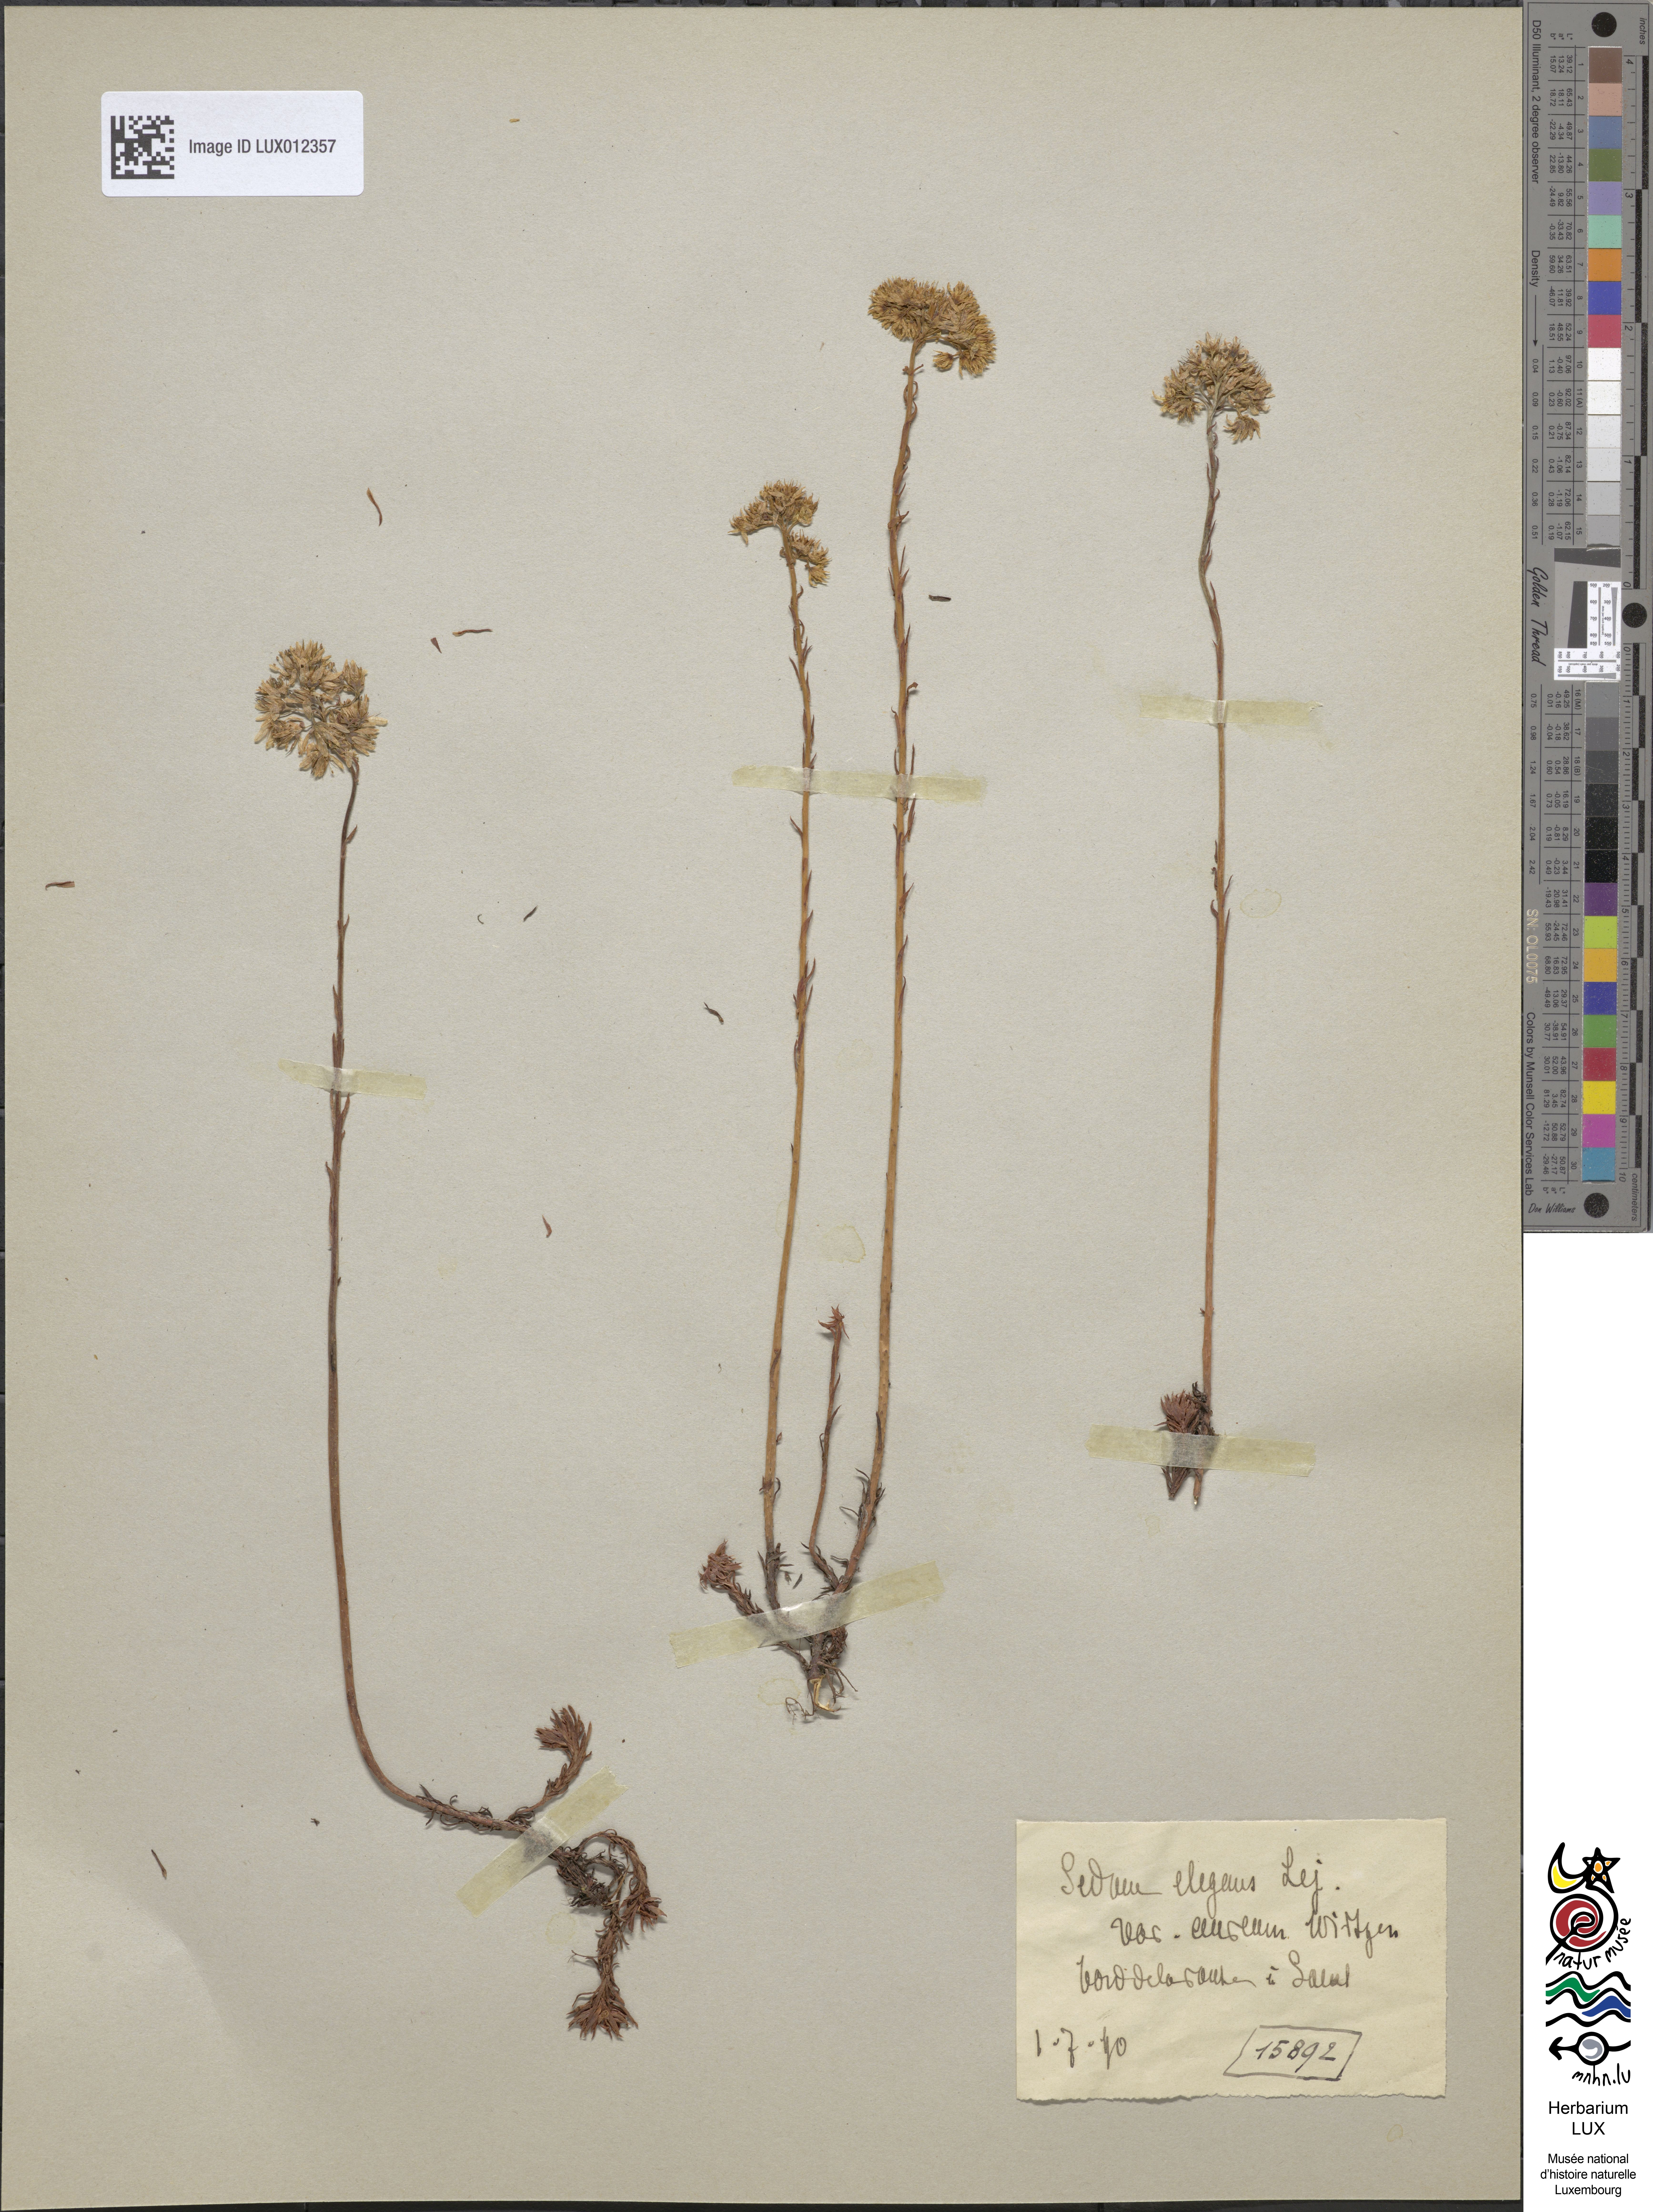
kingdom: Plantae
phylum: Tracheophyta
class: Magnoliopsida
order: Saxifragales
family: Crassulaceae
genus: Petrosedum
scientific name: Petrosedum rupestre
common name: Jenny's stonecrop
